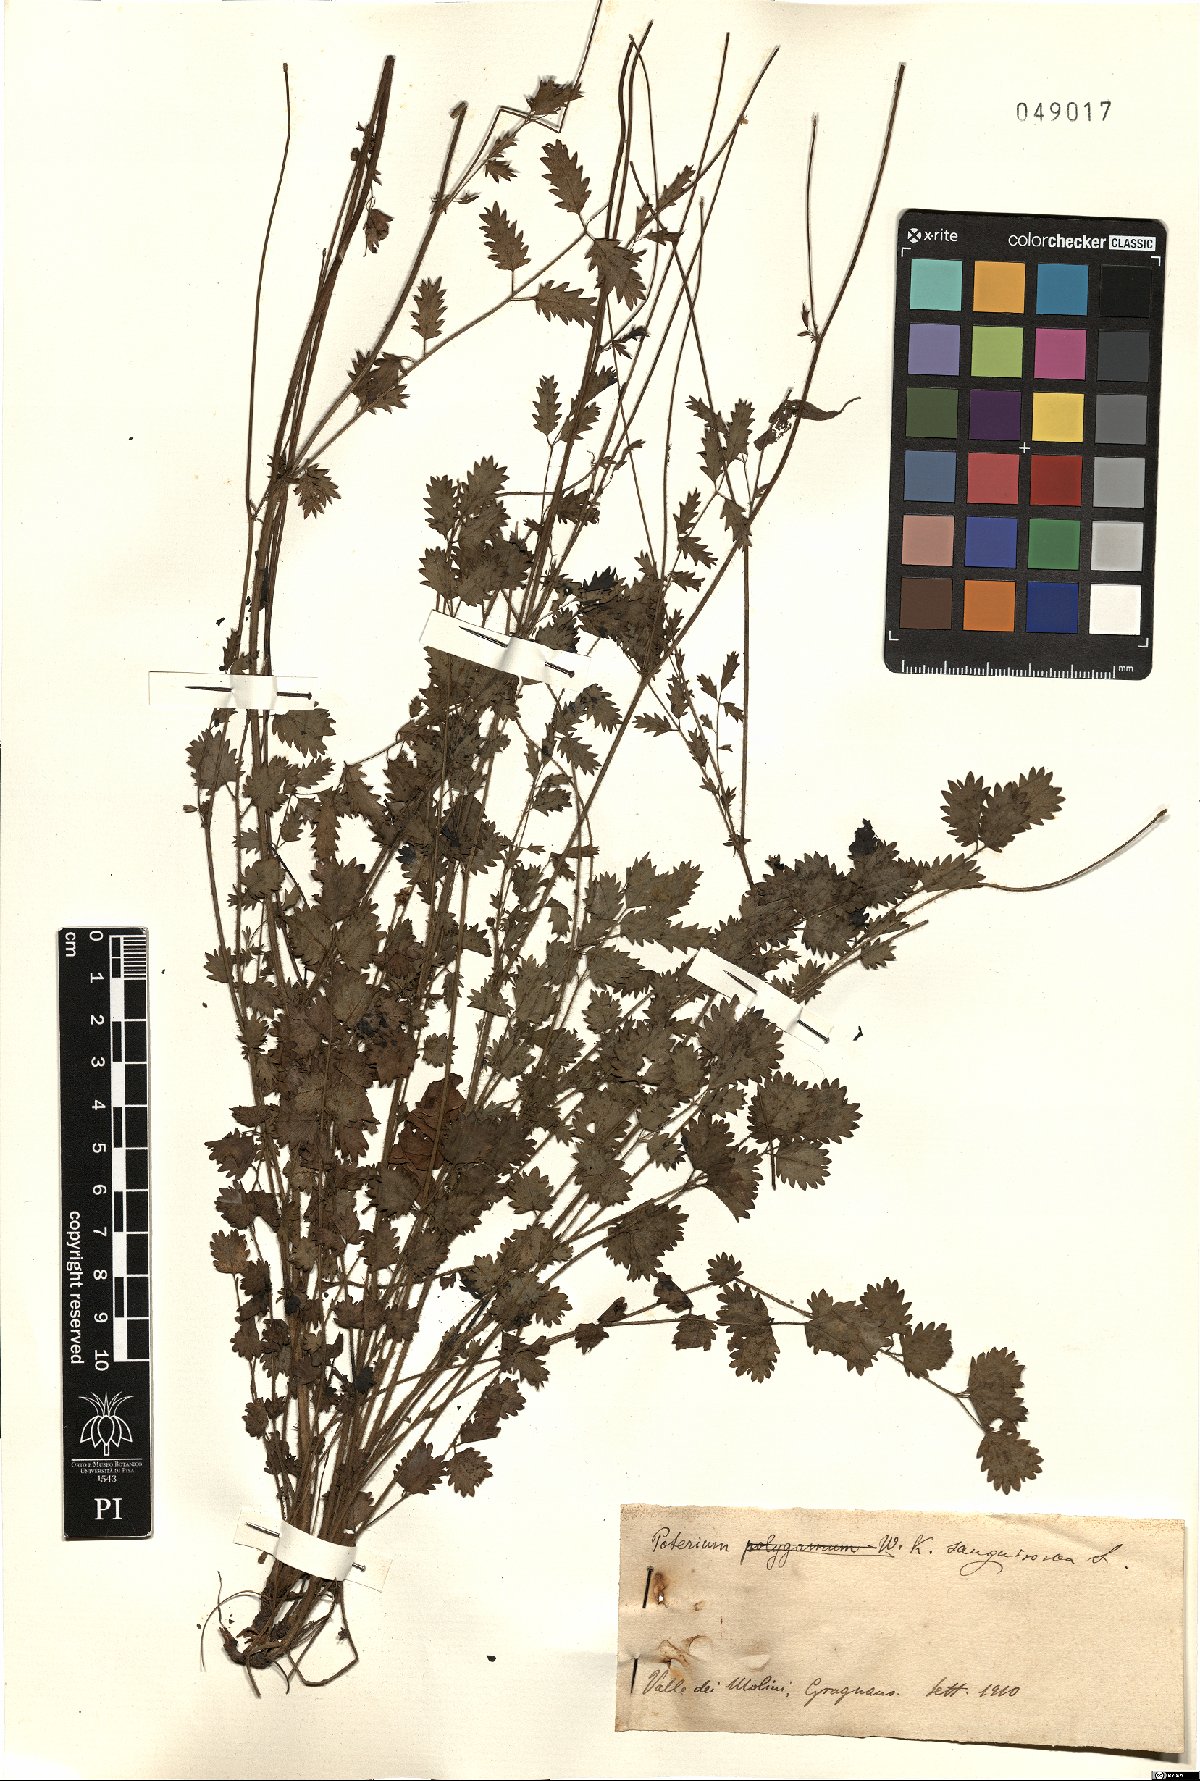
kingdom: Plantae
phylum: Tracheophyta
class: Magnoliopsida
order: Rosales
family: Rosaceae
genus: Poterium
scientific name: Poterium sanguisorba
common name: Salad burnet
